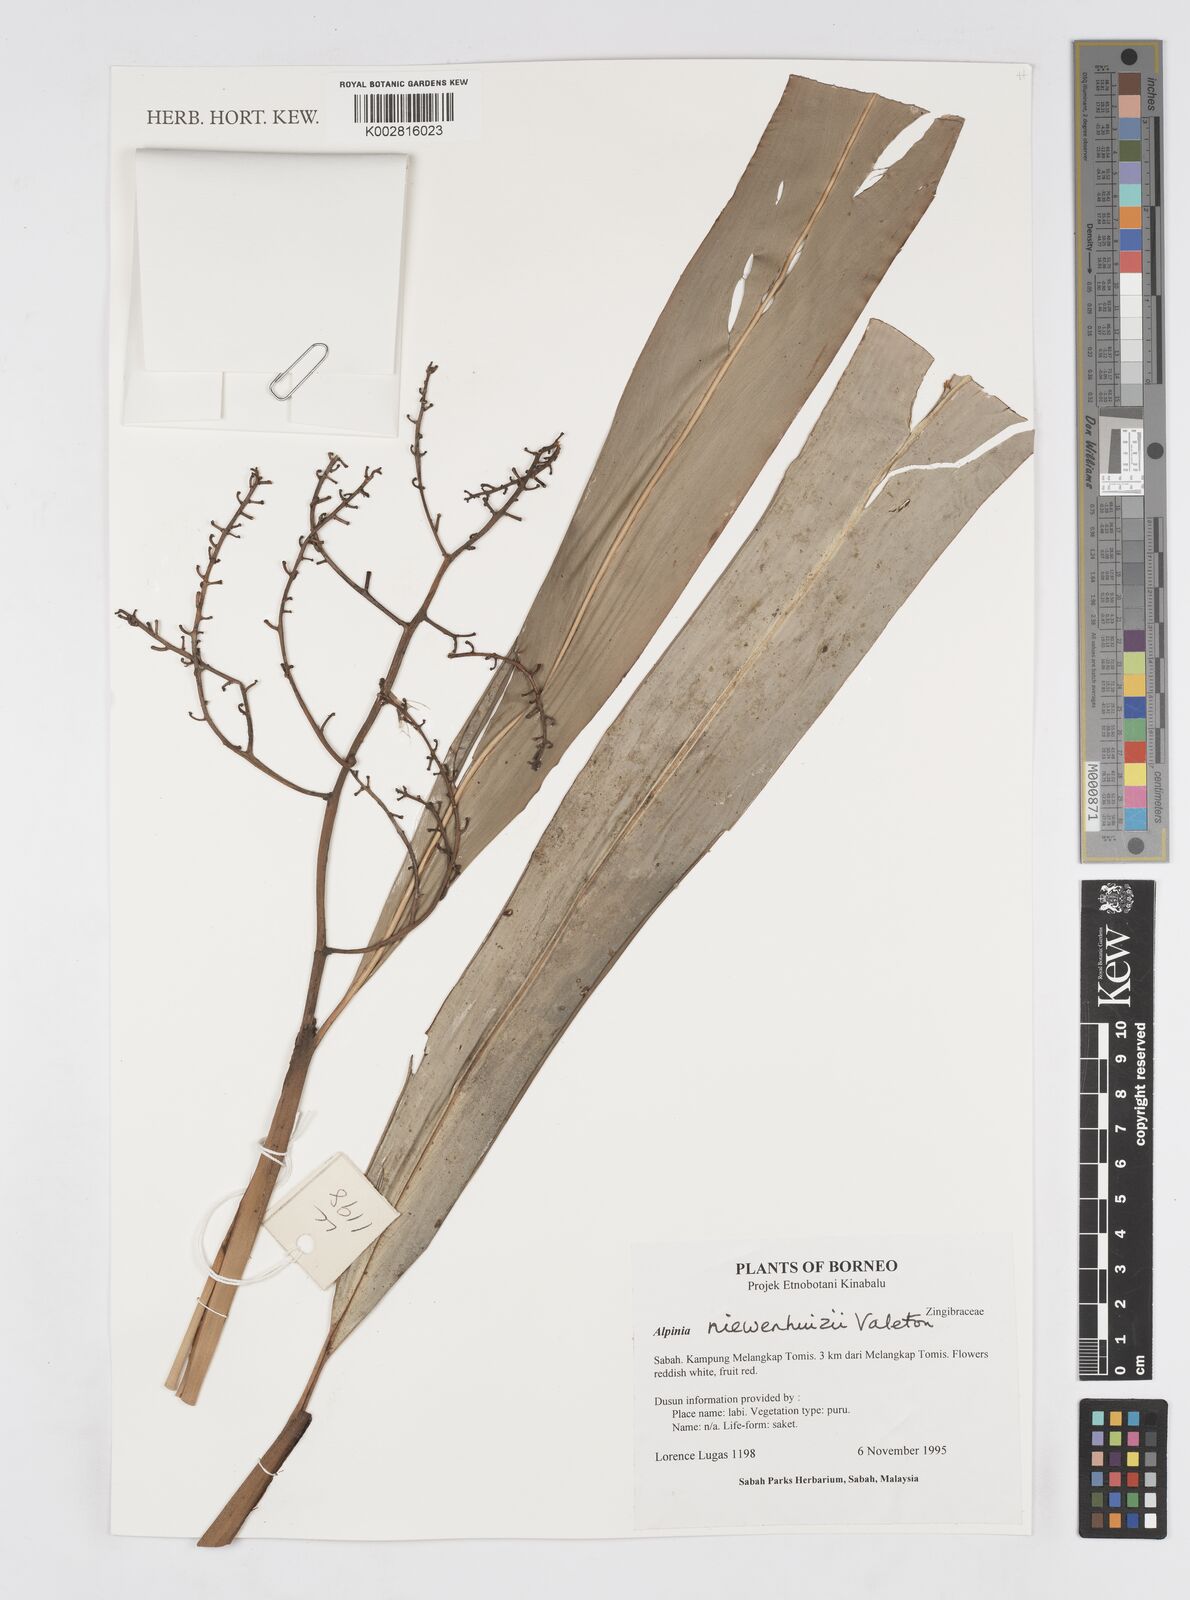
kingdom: Plantae
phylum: Tracheophyta
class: Liliopsida
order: Zingiberales
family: Zingiberaceae
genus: Alpinia
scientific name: Alpinia nieuwenhuizii
